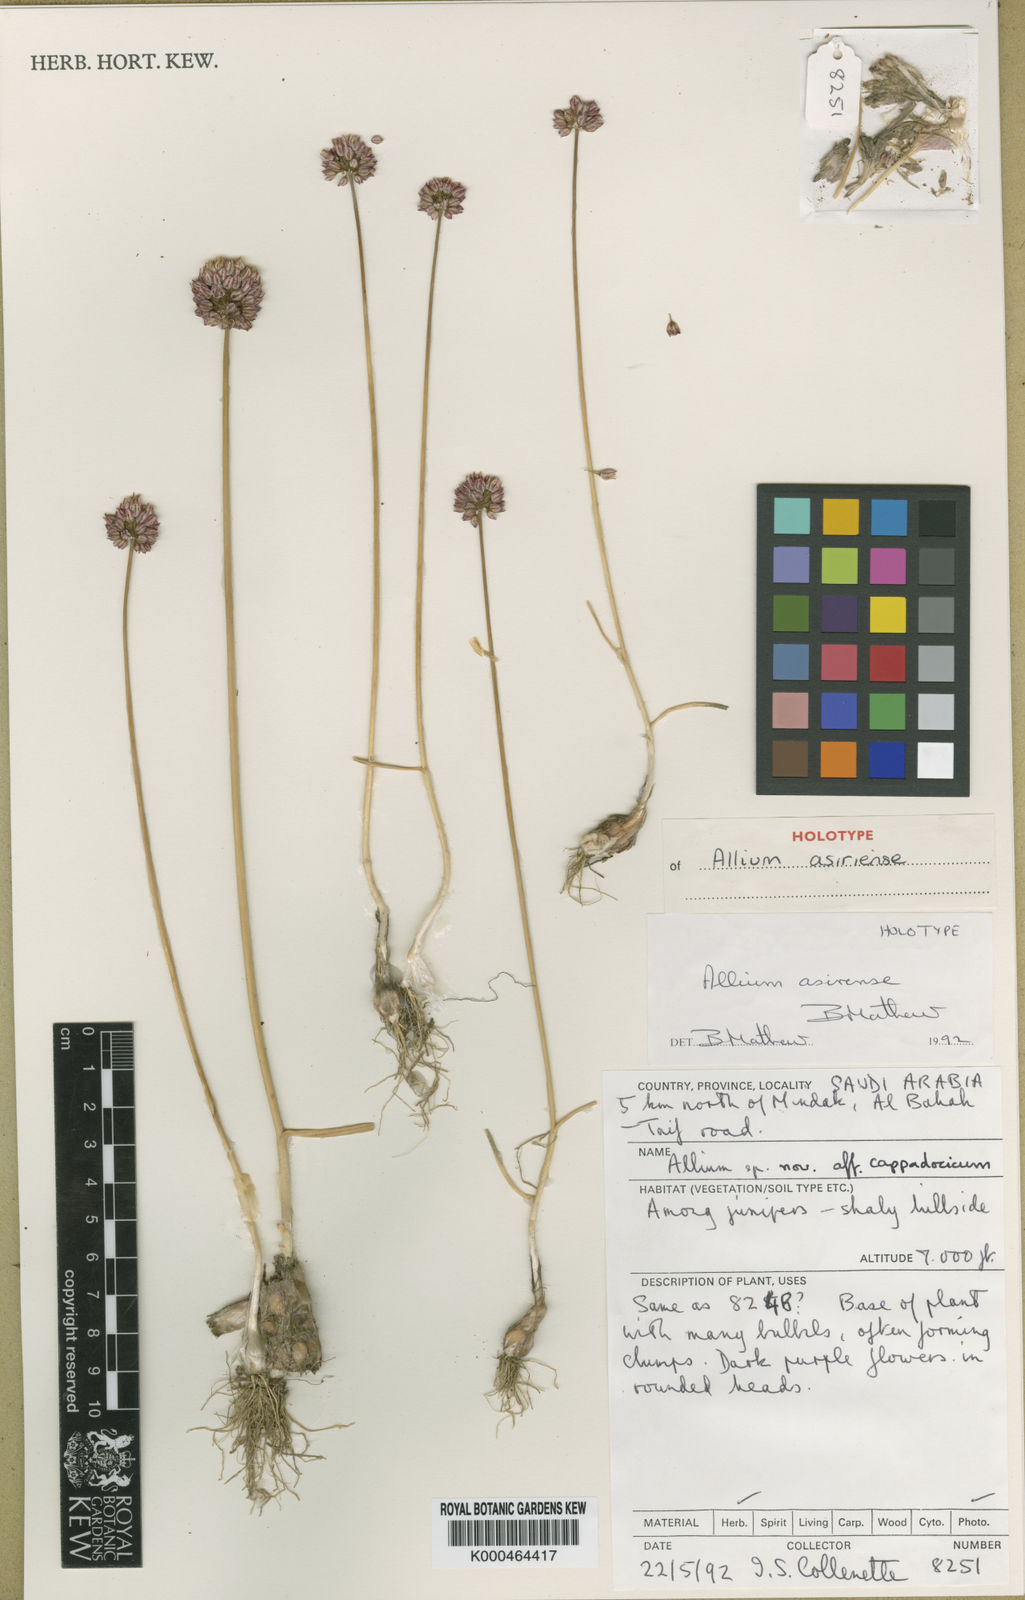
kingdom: Plantae
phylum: Tracheophyta
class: Liliopsida
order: Asparagales
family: Amaryllidaceae
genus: Allium
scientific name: Allium asirense
